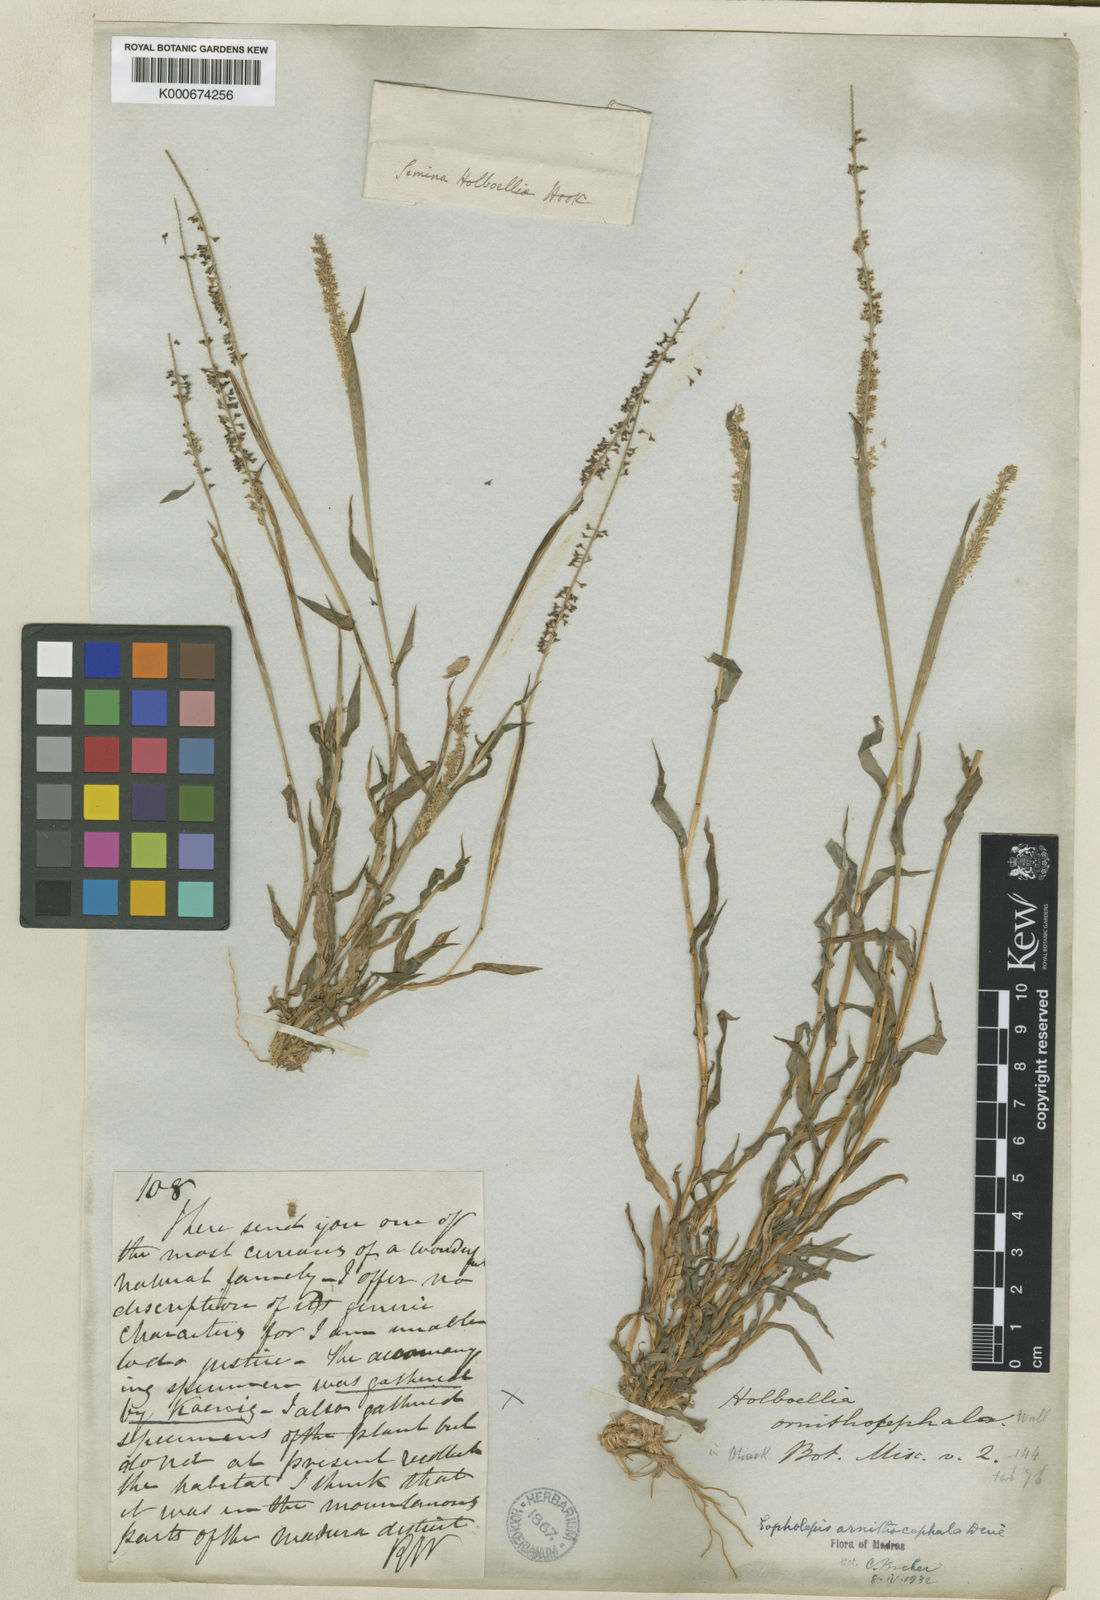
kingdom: Plantae
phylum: Tracheophyta
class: Liliopsida
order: Poales
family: Poaceae
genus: Perotis
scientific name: Perotis ornithocephala
